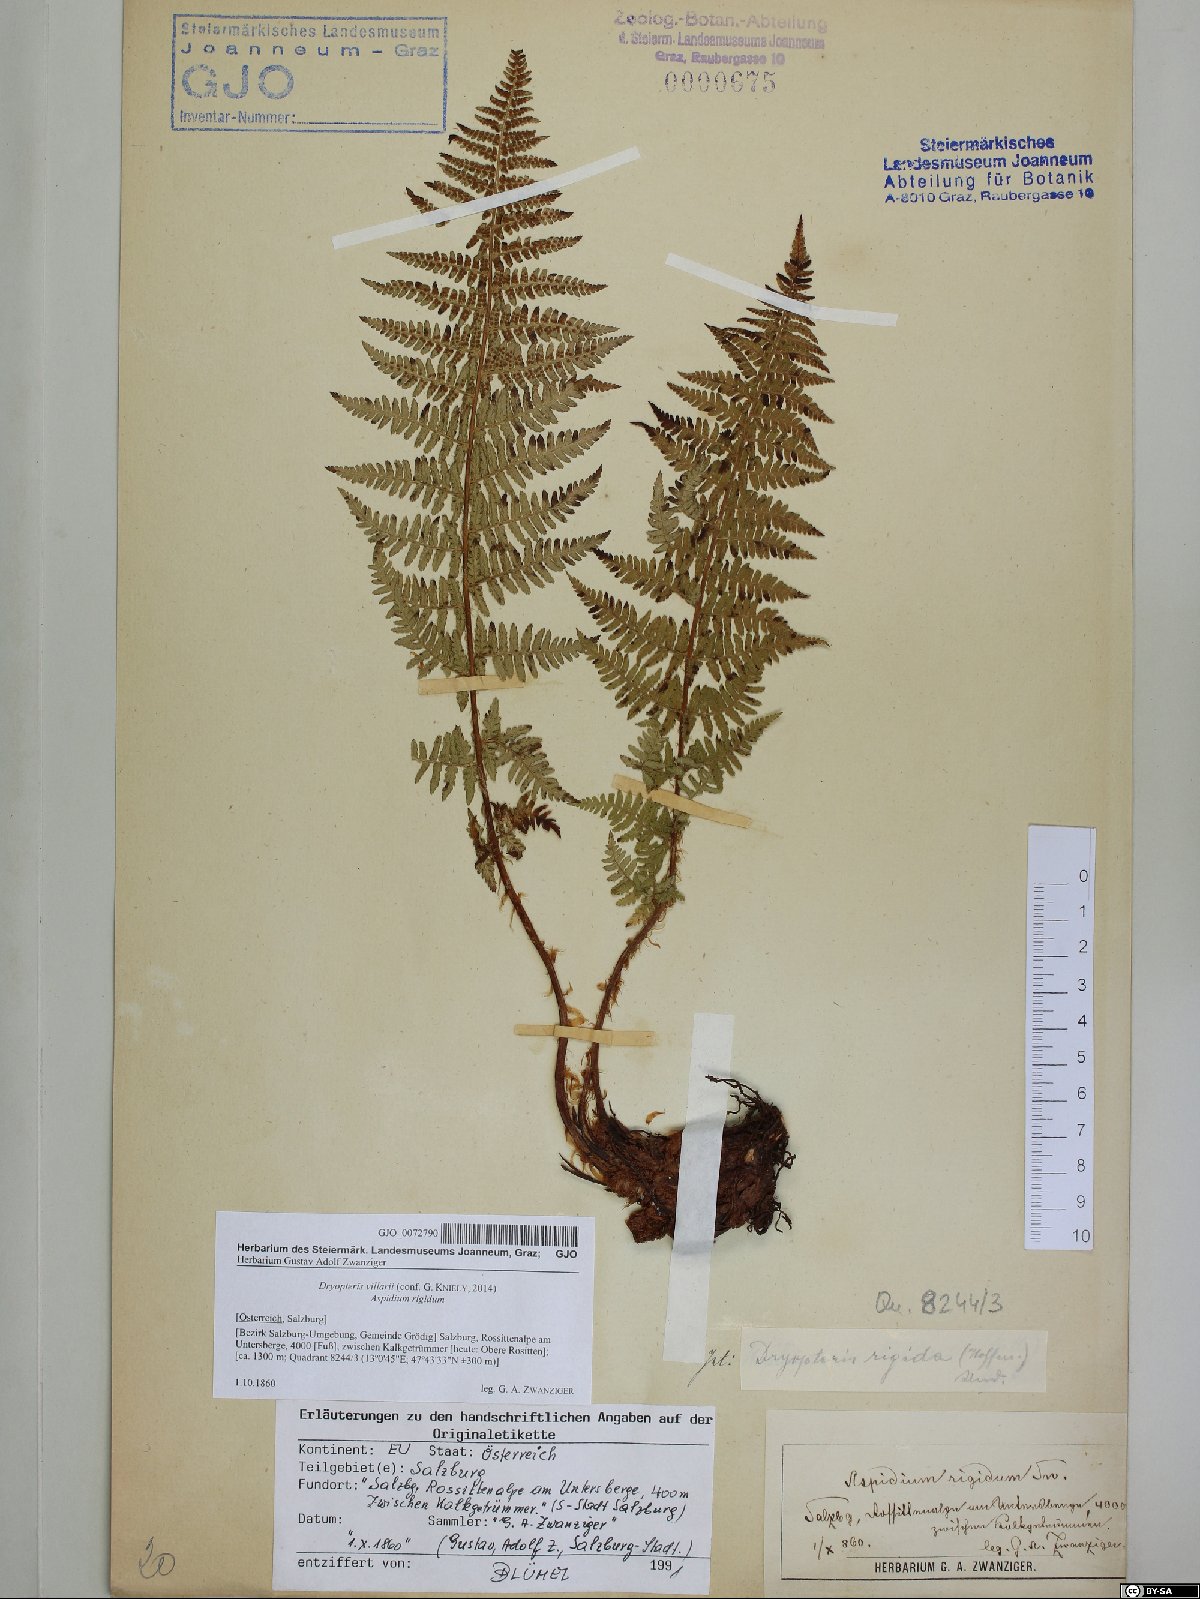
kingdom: Plantae
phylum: Tracheophyta
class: Polypodiopsida
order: Polypodiales
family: Dryopteridaceae
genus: Dryopteris
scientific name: Dryopteris villarii
